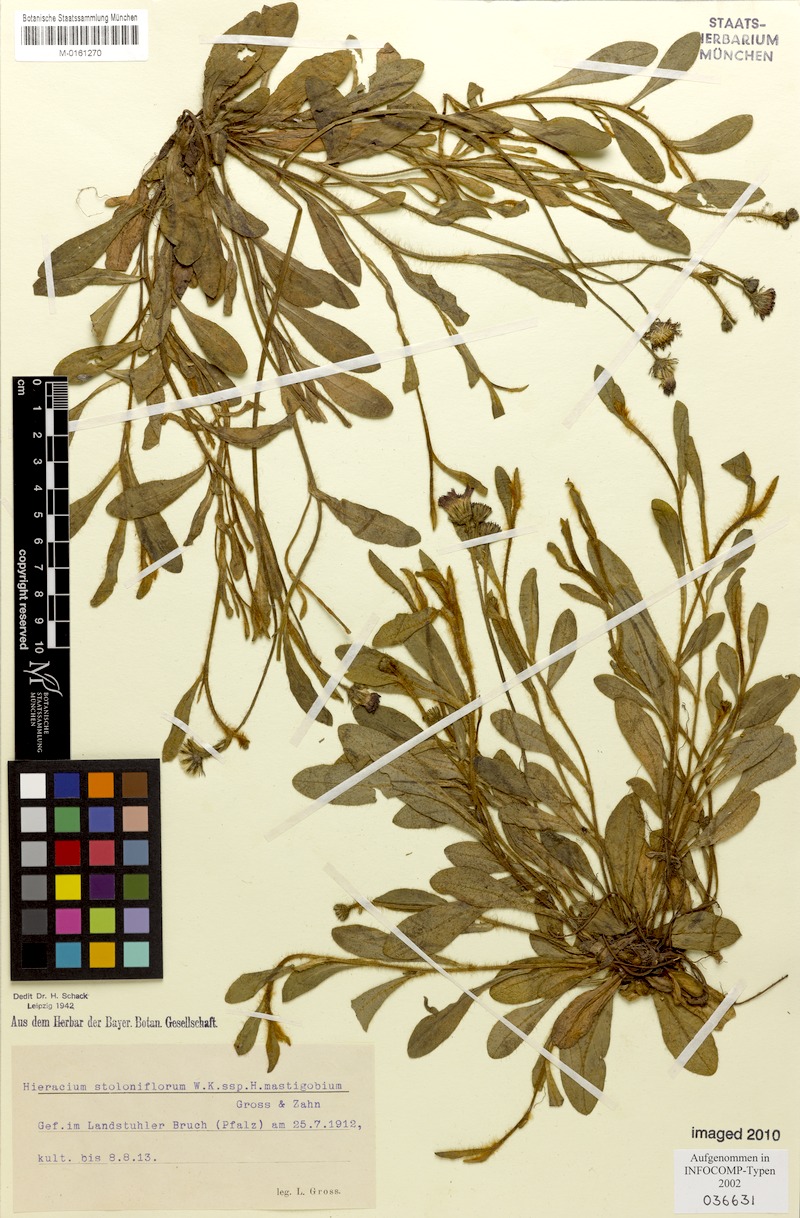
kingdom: Plantae
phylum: Tracheophyta
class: Magnoliopsida
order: Asterales
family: Asteraceae
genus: Pilosella
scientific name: Pilosella stoloniflora
